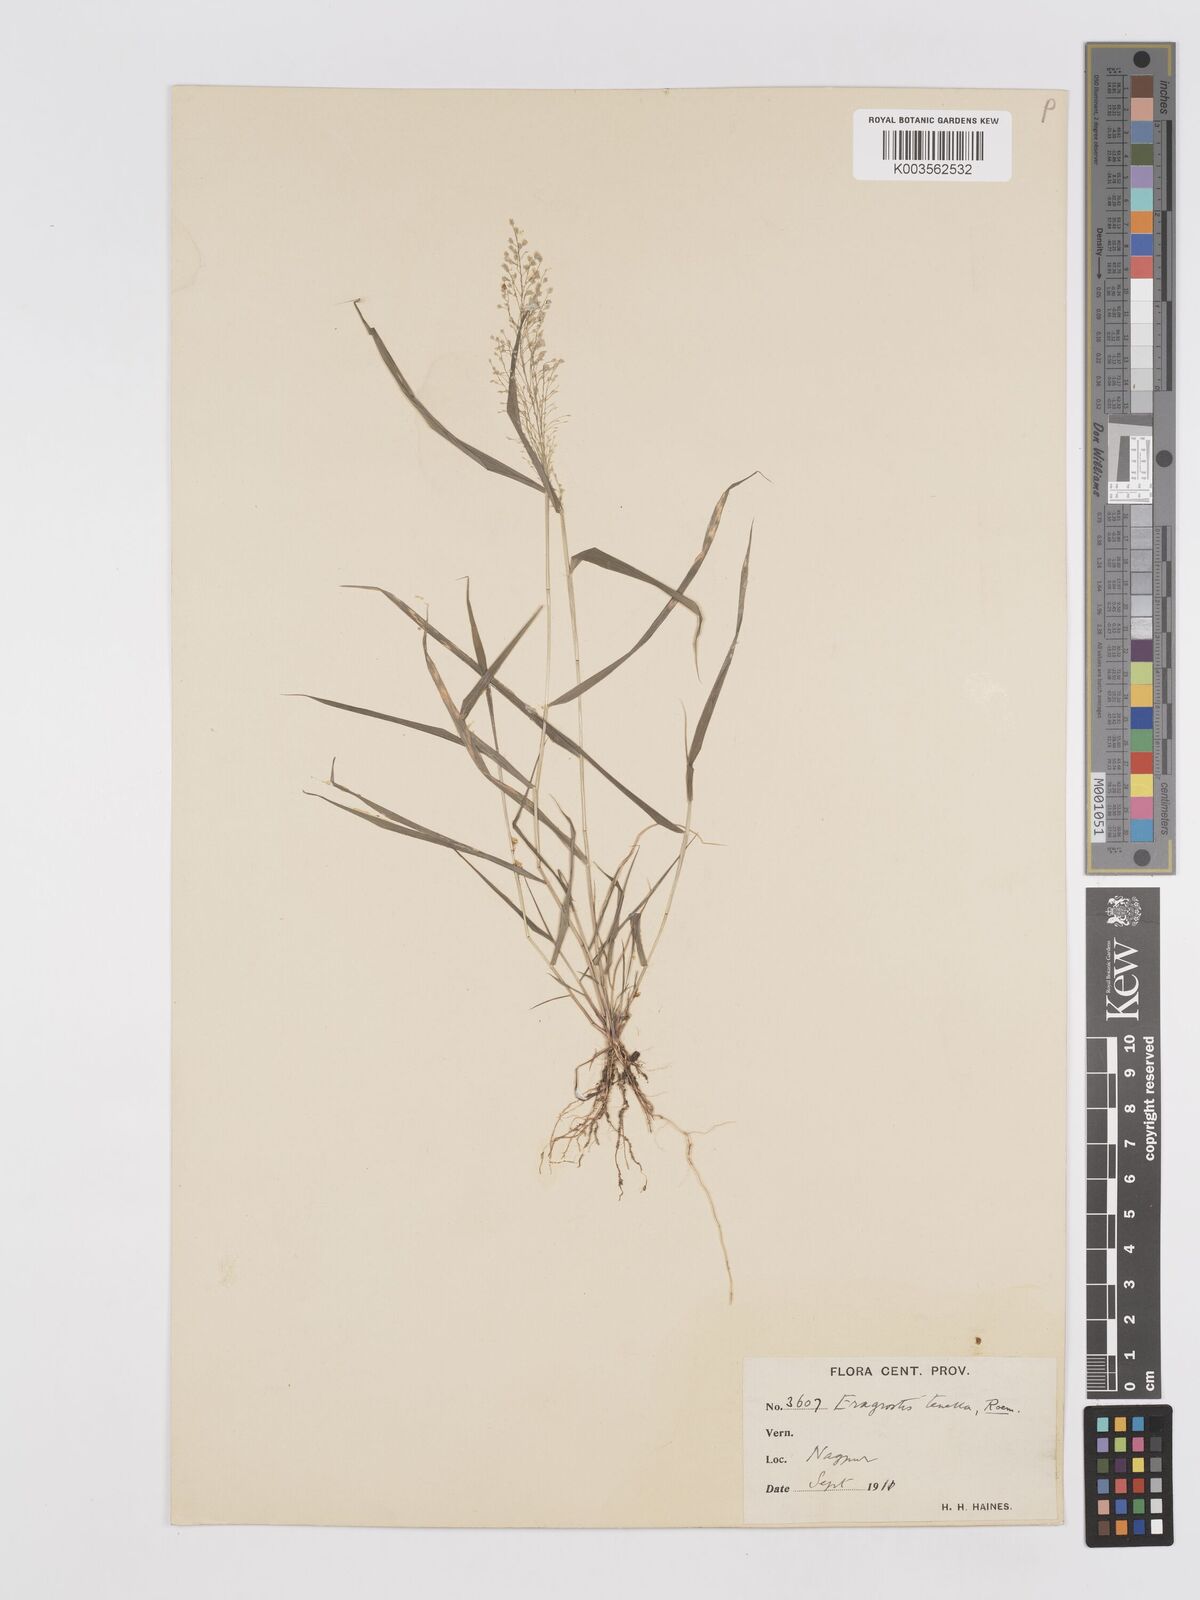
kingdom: Plantae
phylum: Tracheophyta
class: Liliopsida
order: Poales
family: Poaceae
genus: Eragrostis
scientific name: Eragrostis tenella
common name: Japanese lovegrass
